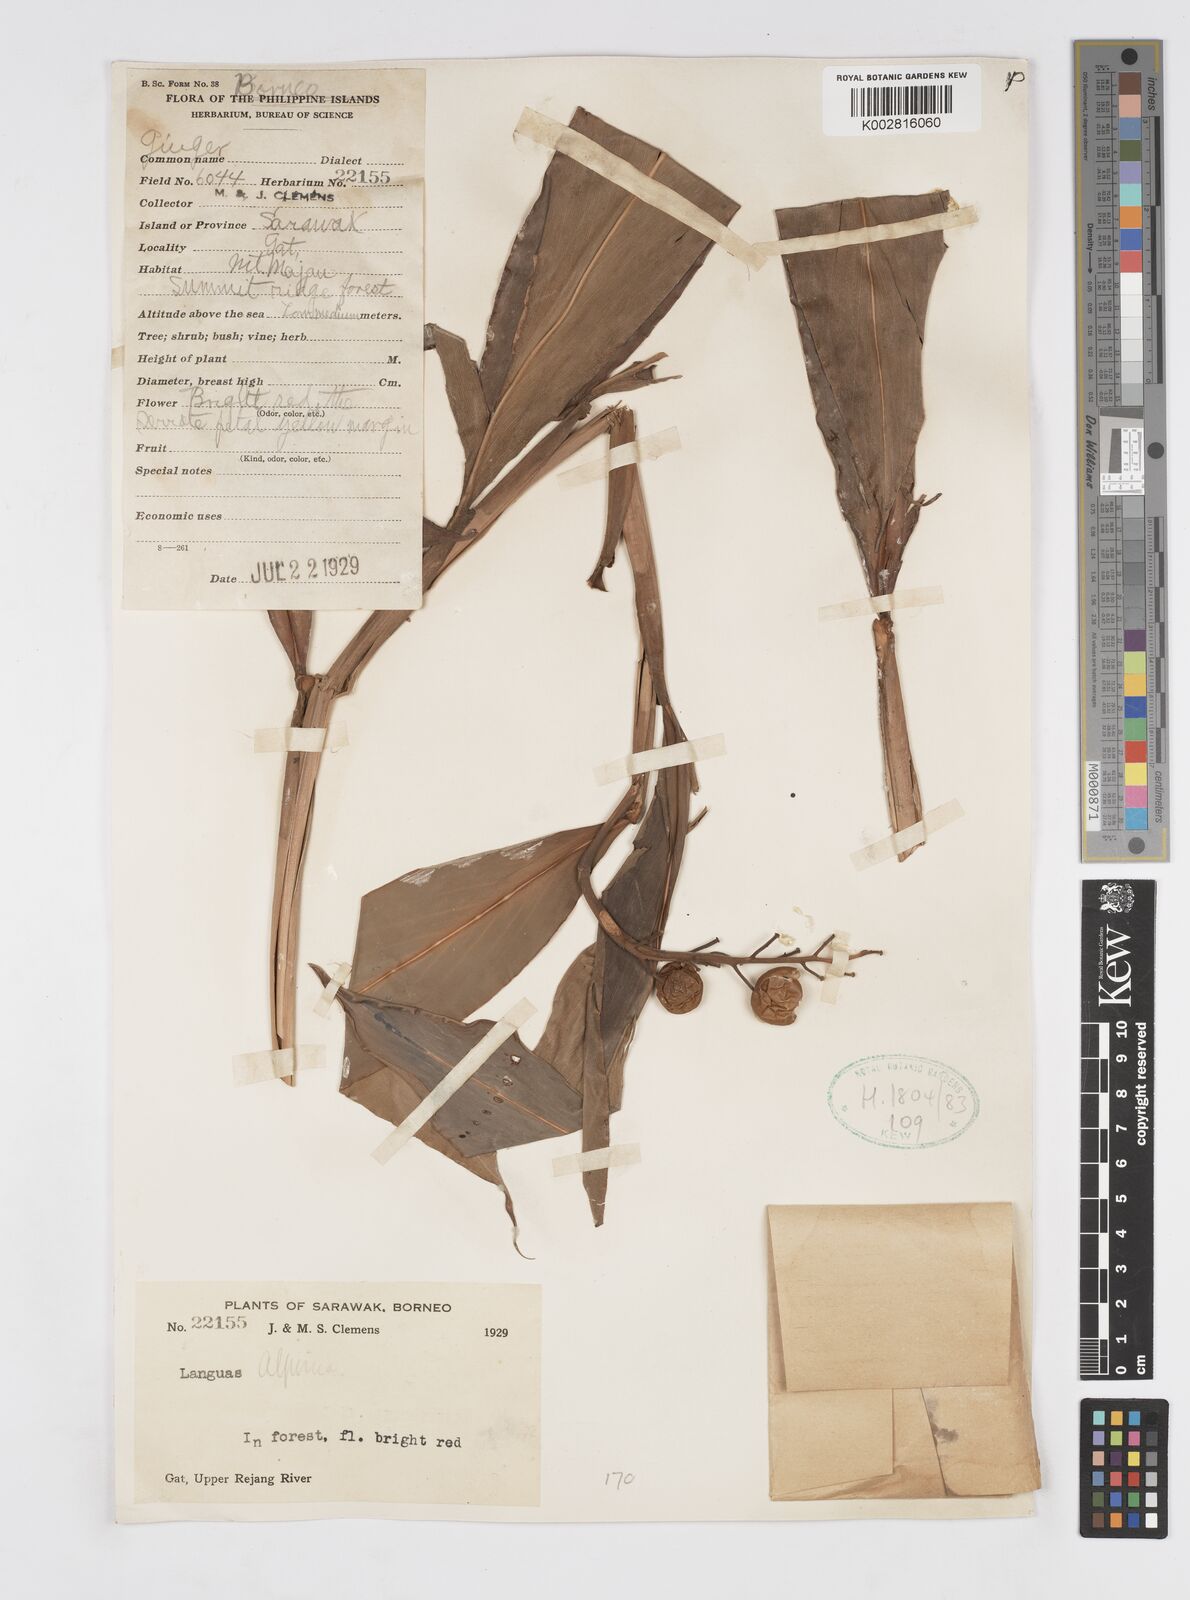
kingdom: Plantae
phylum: Tracheophyta
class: Liliopsida
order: Zingiberales
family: Zingiberaceae
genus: Alpinia
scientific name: Alpinia
